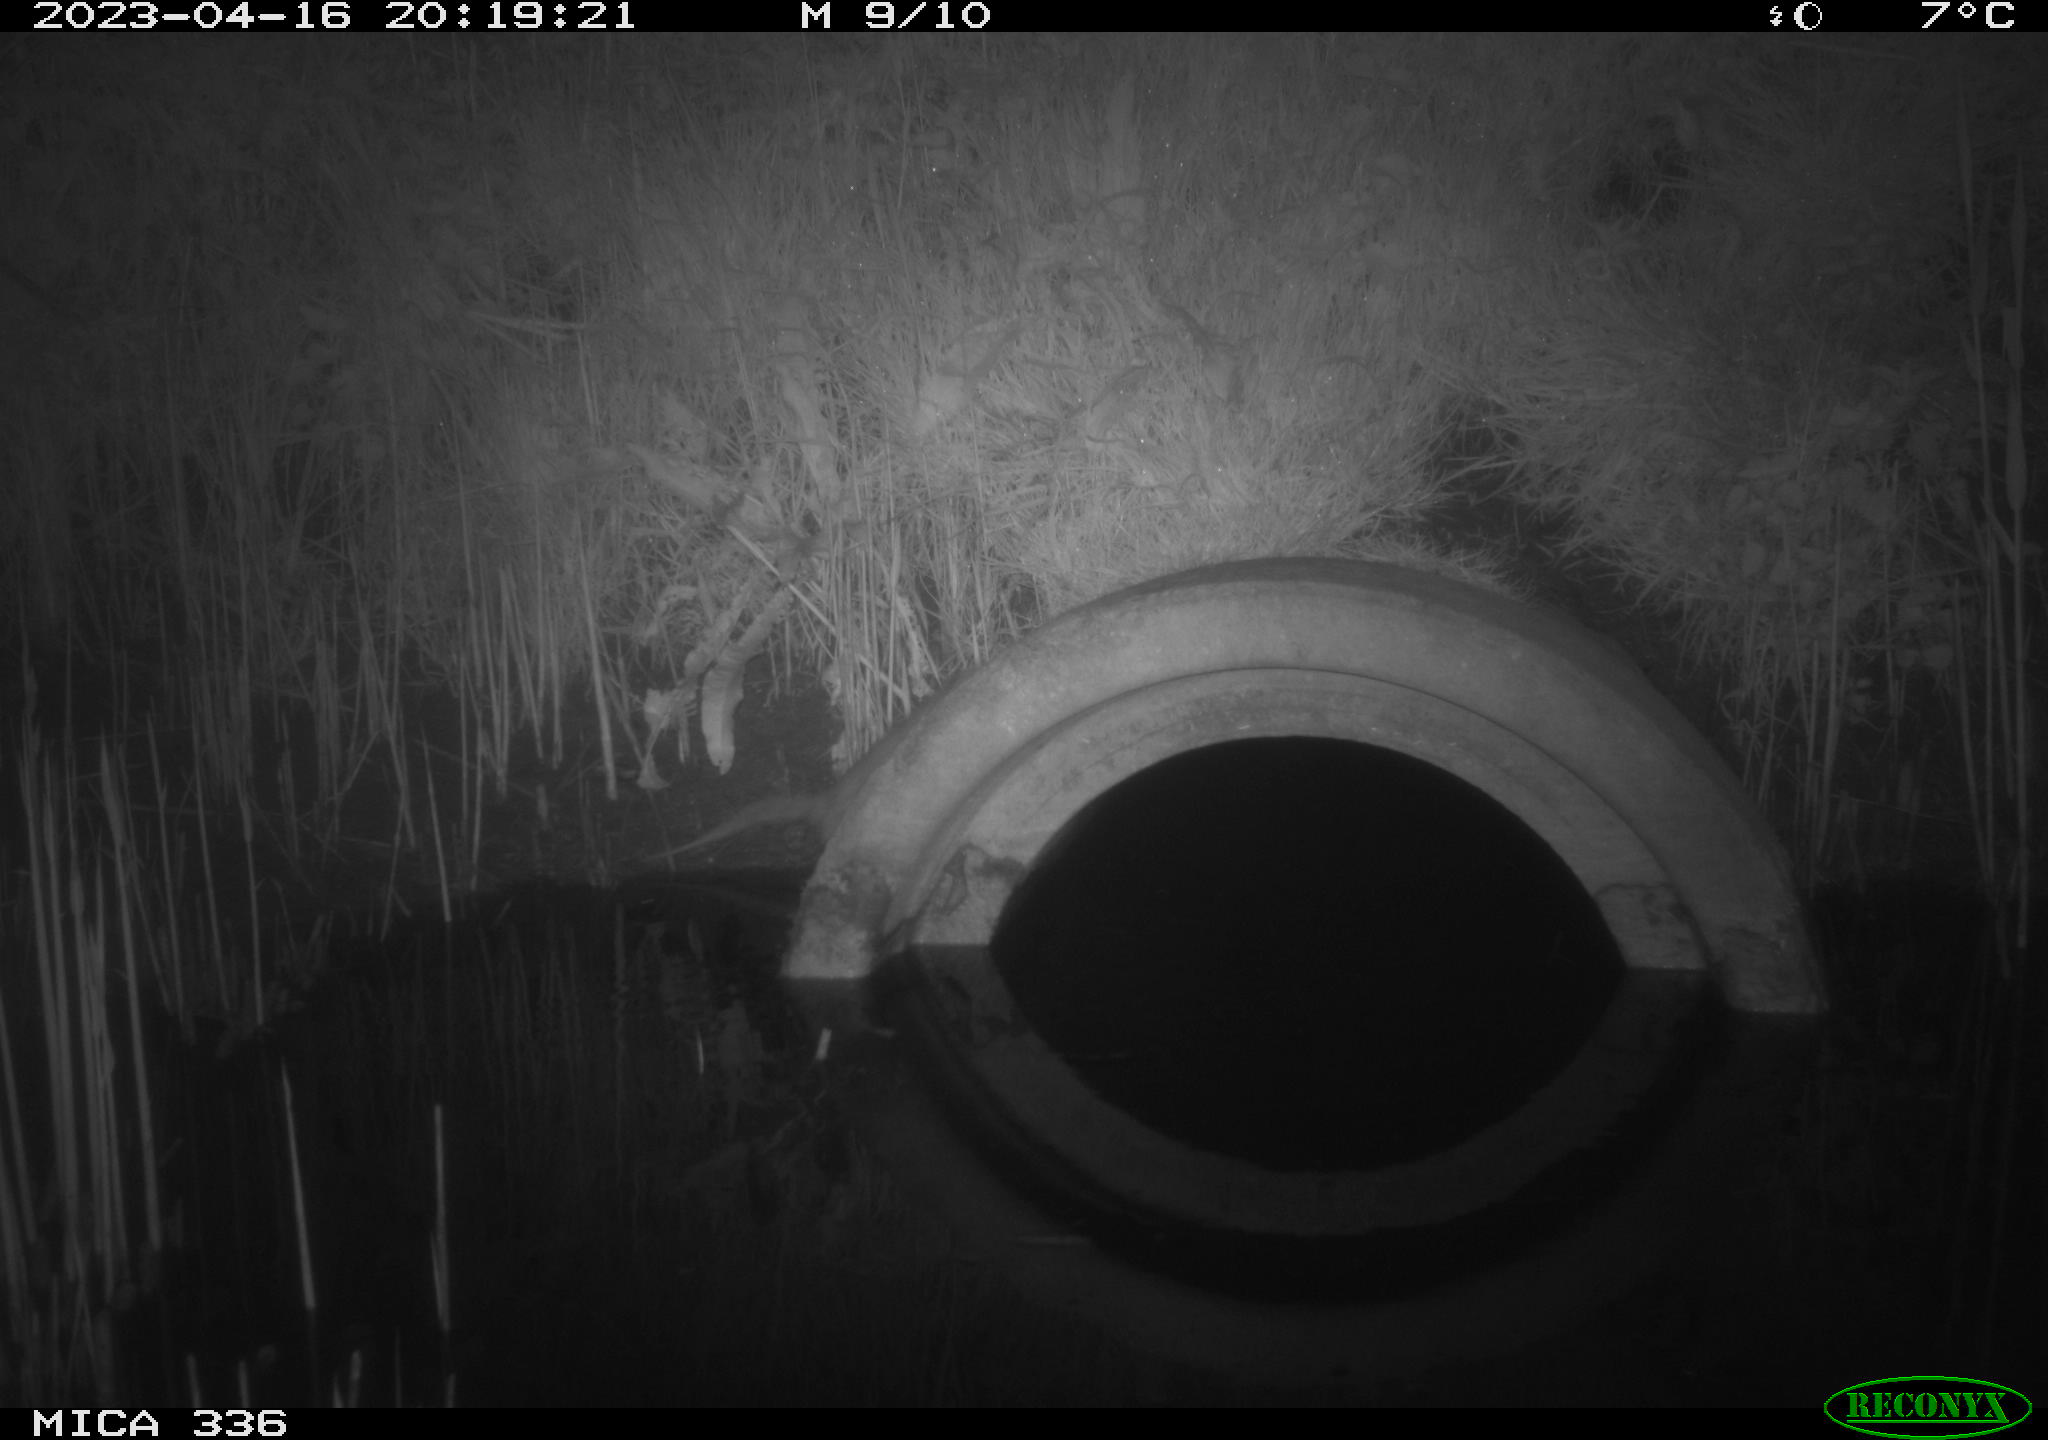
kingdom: Animalia
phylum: Chordata
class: Mammalia
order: Rodentia
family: Muridae
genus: Rattus
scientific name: Rattus norvegicus
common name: Brown rat
